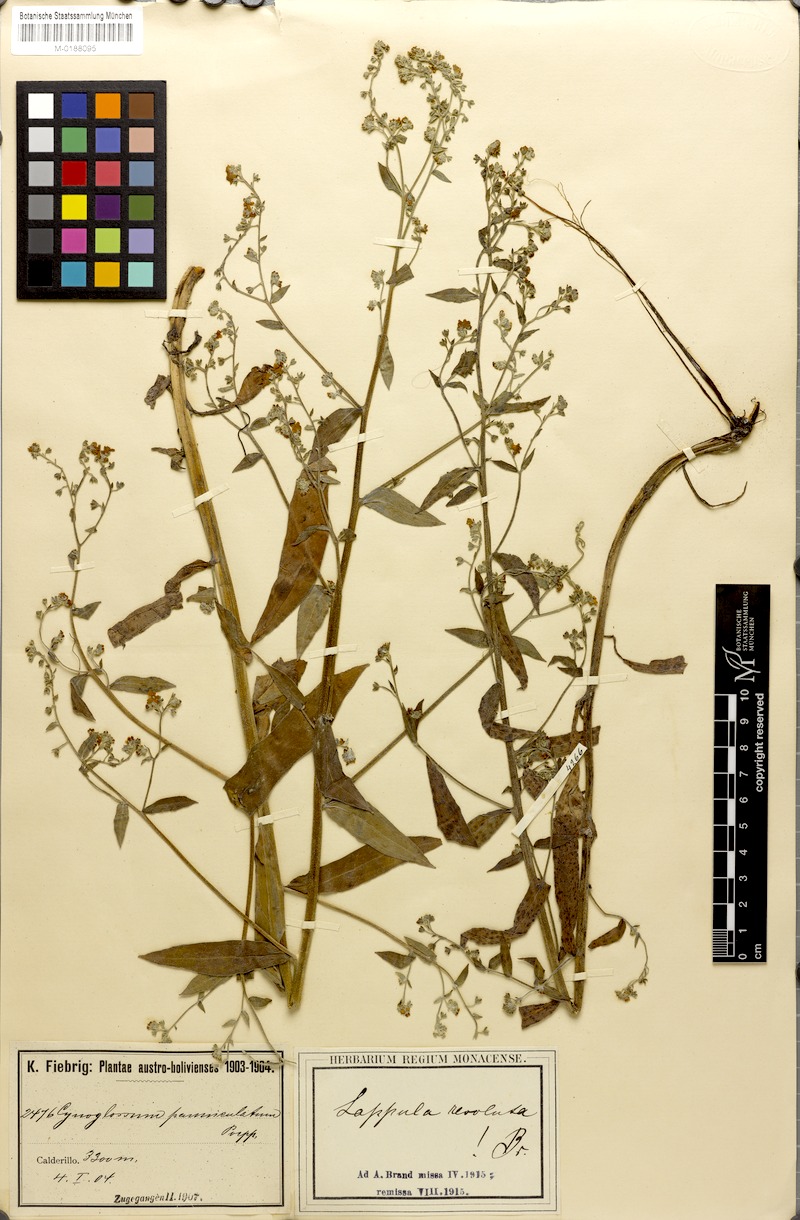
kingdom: Plantae
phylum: Tracheophyta
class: Magnoliopsida
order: Boraginales
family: Boraginaceae
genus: Hackelia
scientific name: Hackelia revoluta
